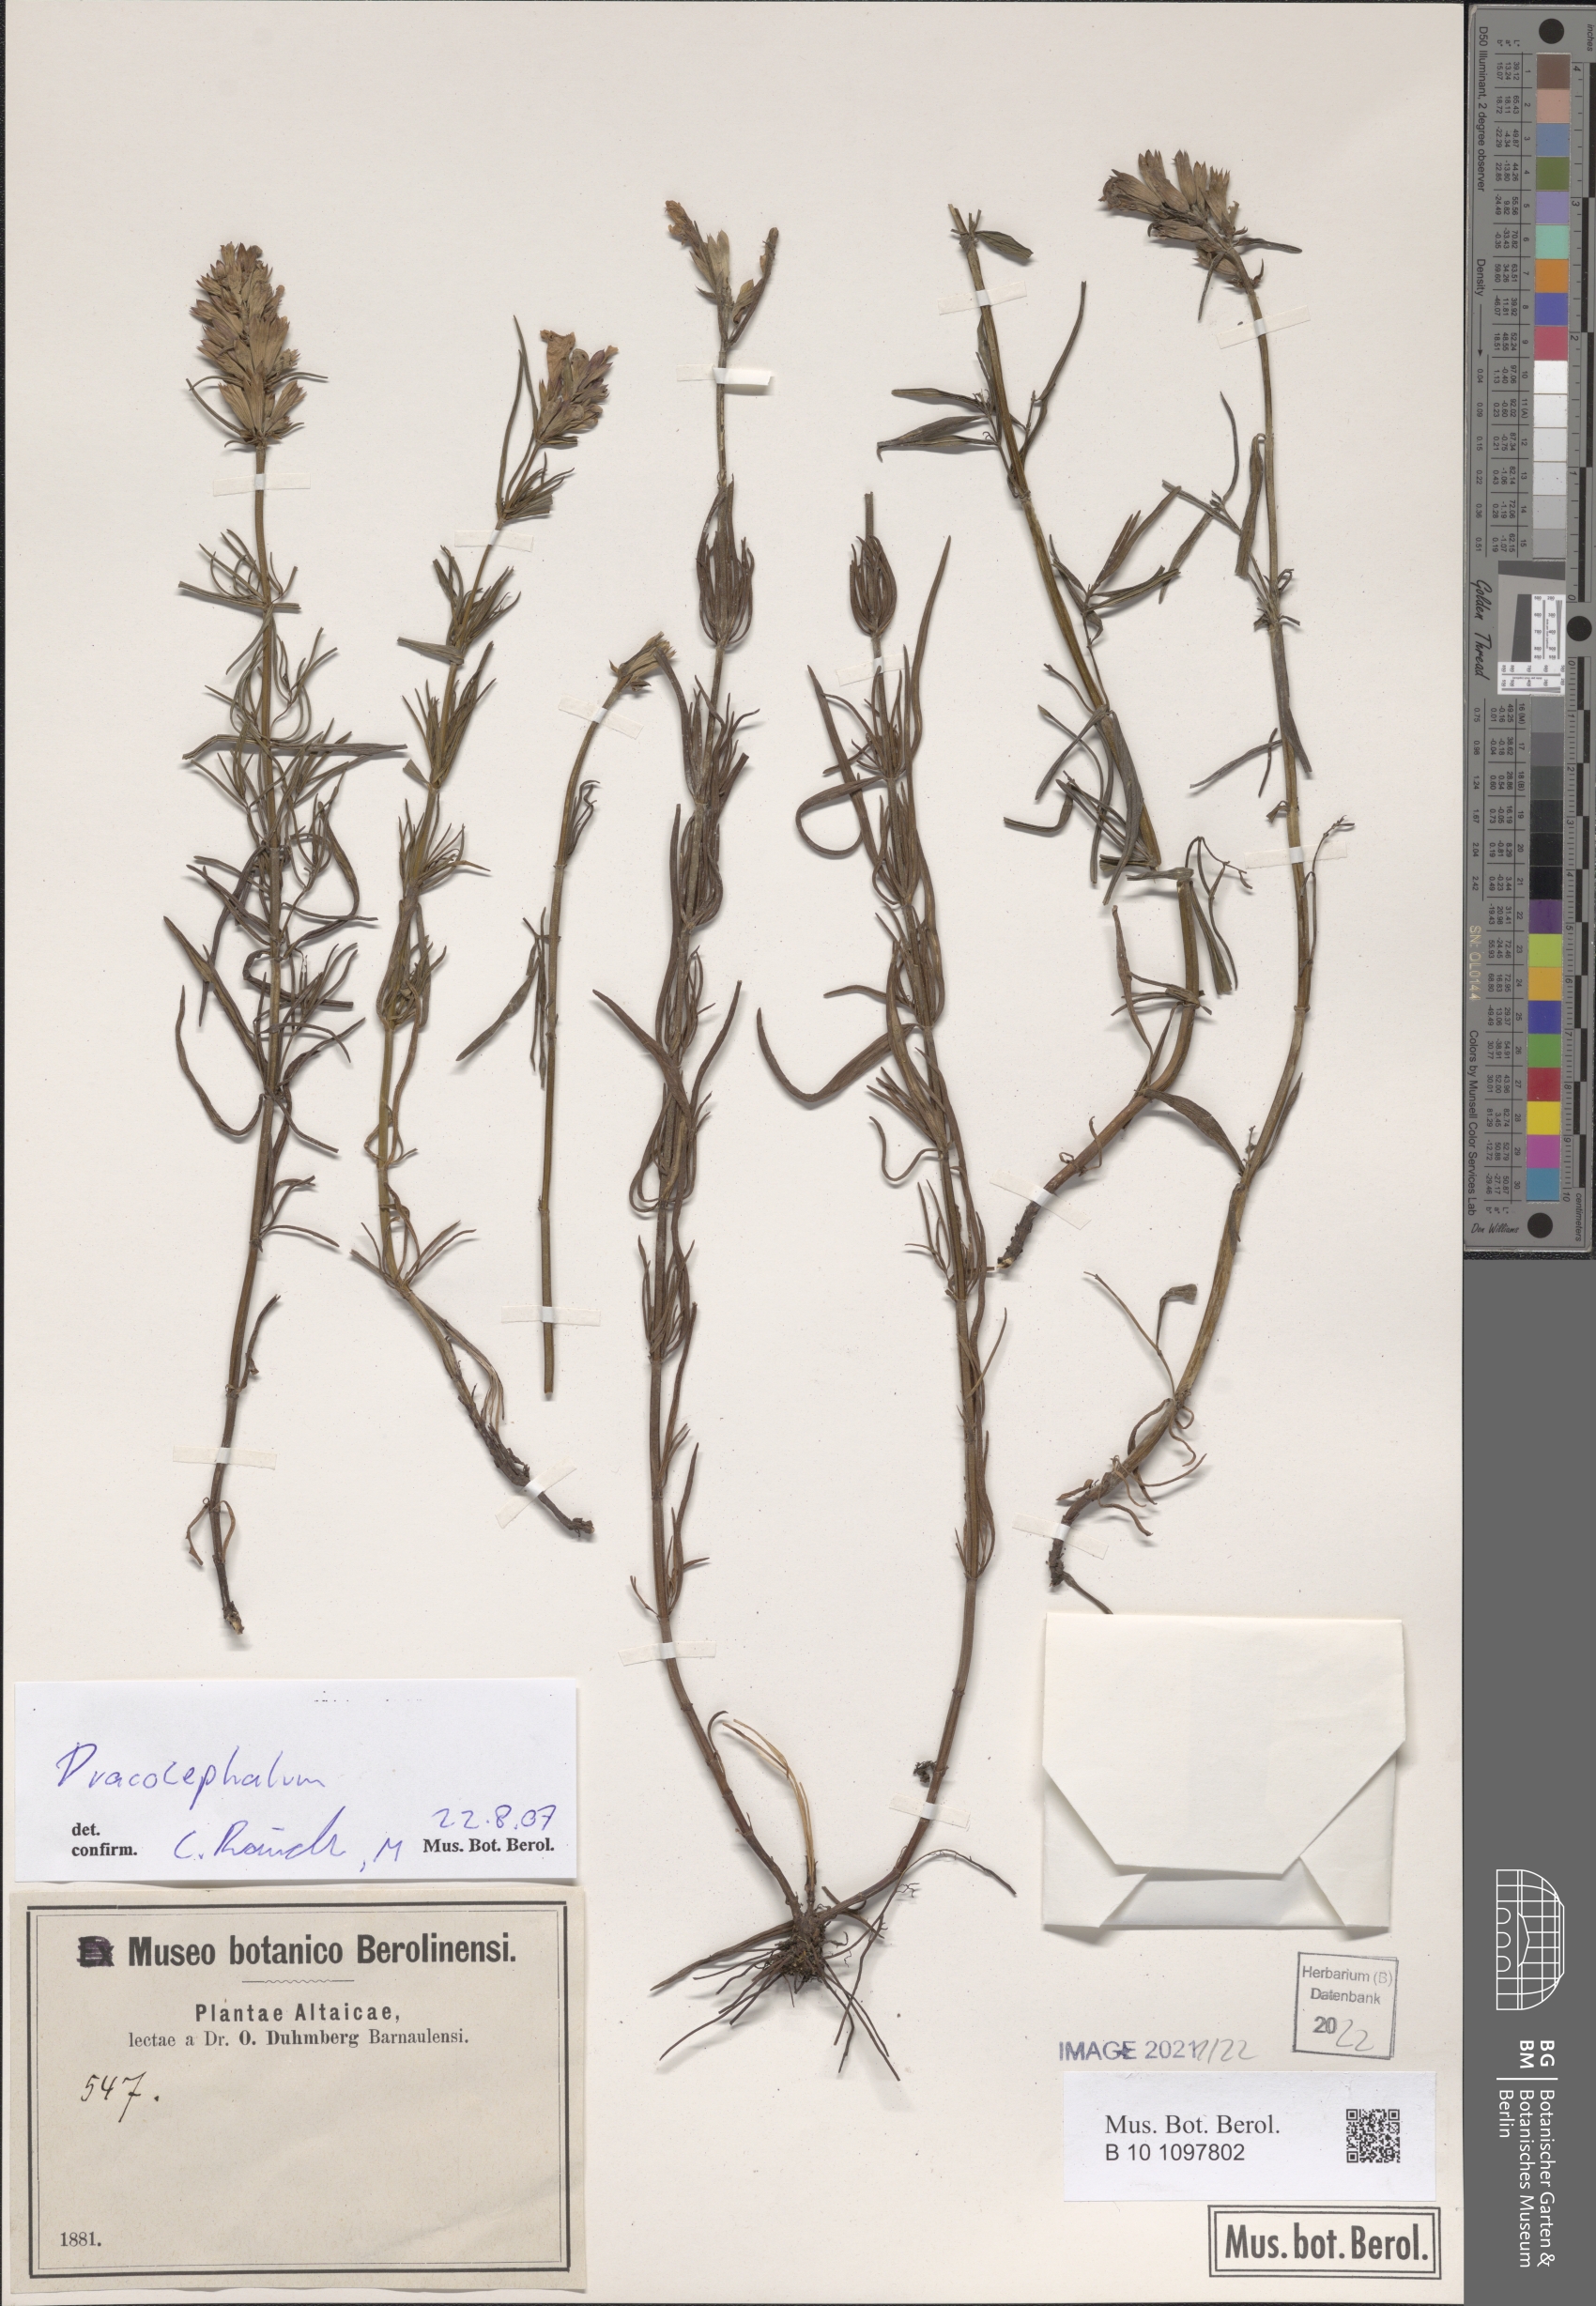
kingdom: Plantae
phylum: Tracheophyta
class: Magnoliopsida
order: Lamiales
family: Lamiaceae
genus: Dracocephalum
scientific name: Dracocephalum
